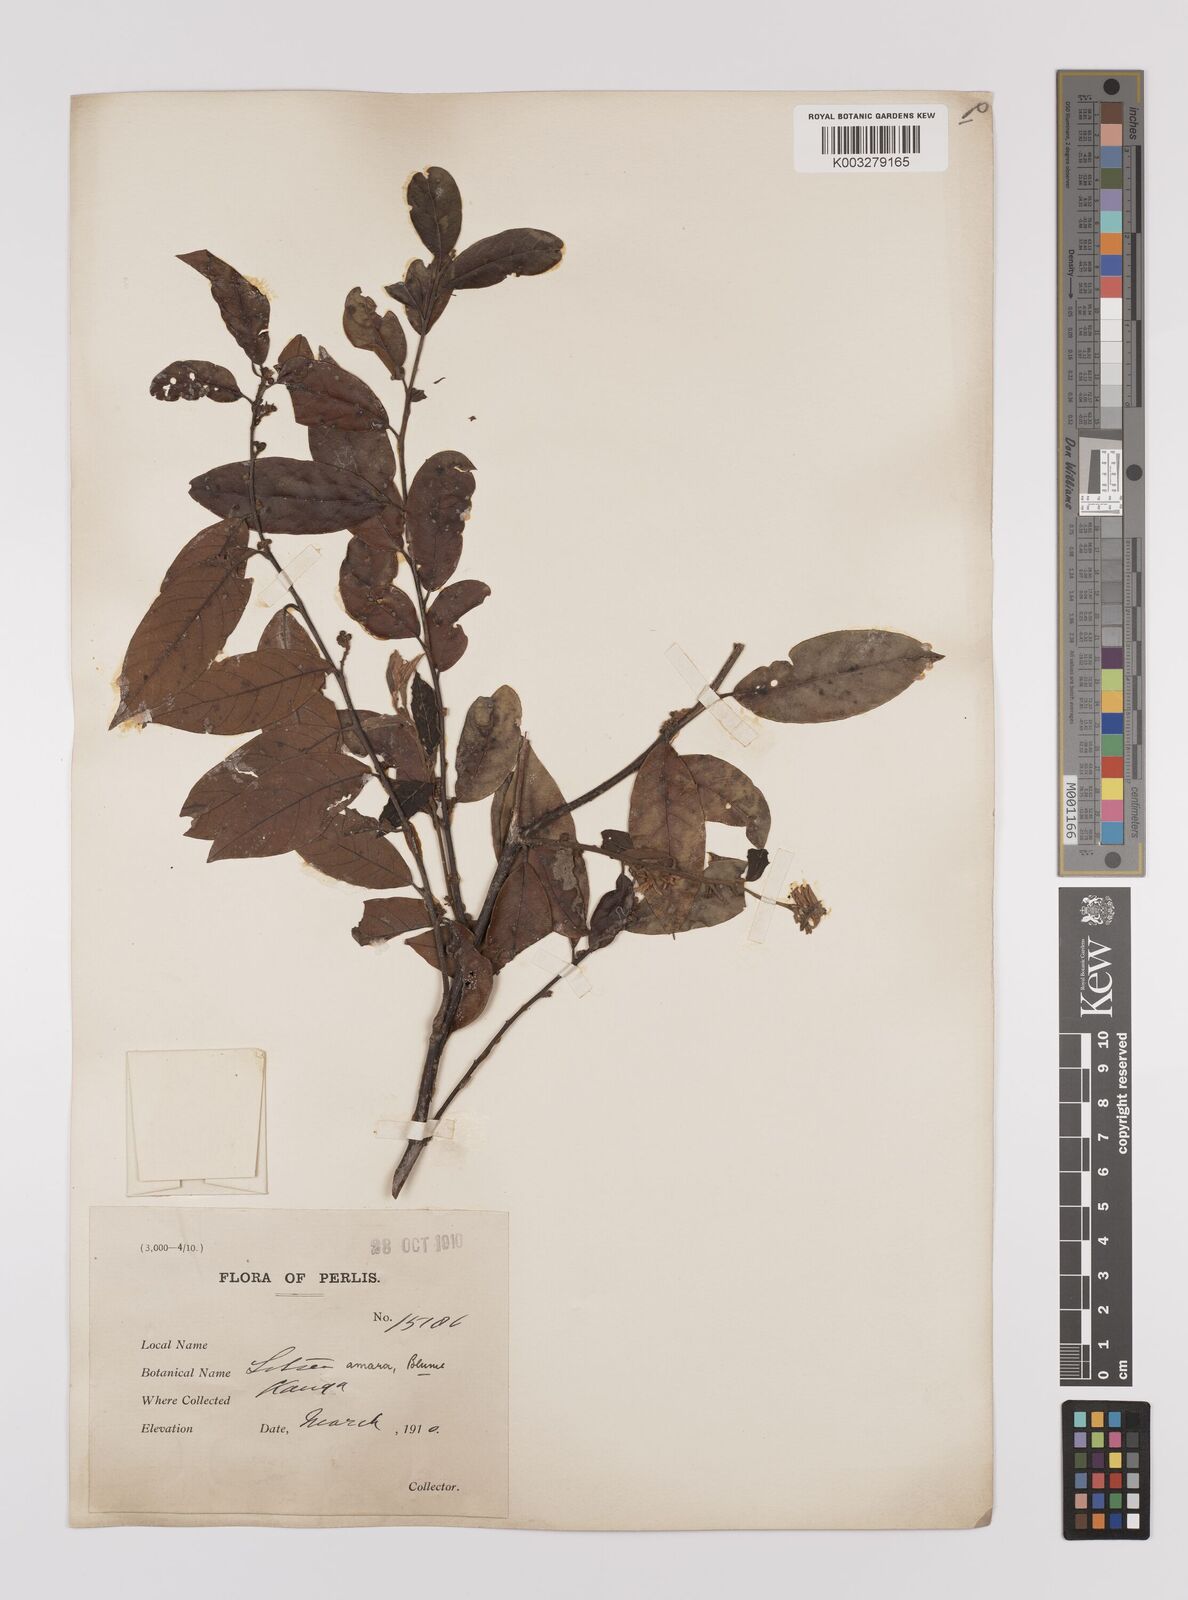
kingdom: Plantae
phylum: Tracheophyta
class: Magnoliopsida
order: Laurales
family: Lauraceae
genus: Litsea
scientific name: Litsea umbellata
